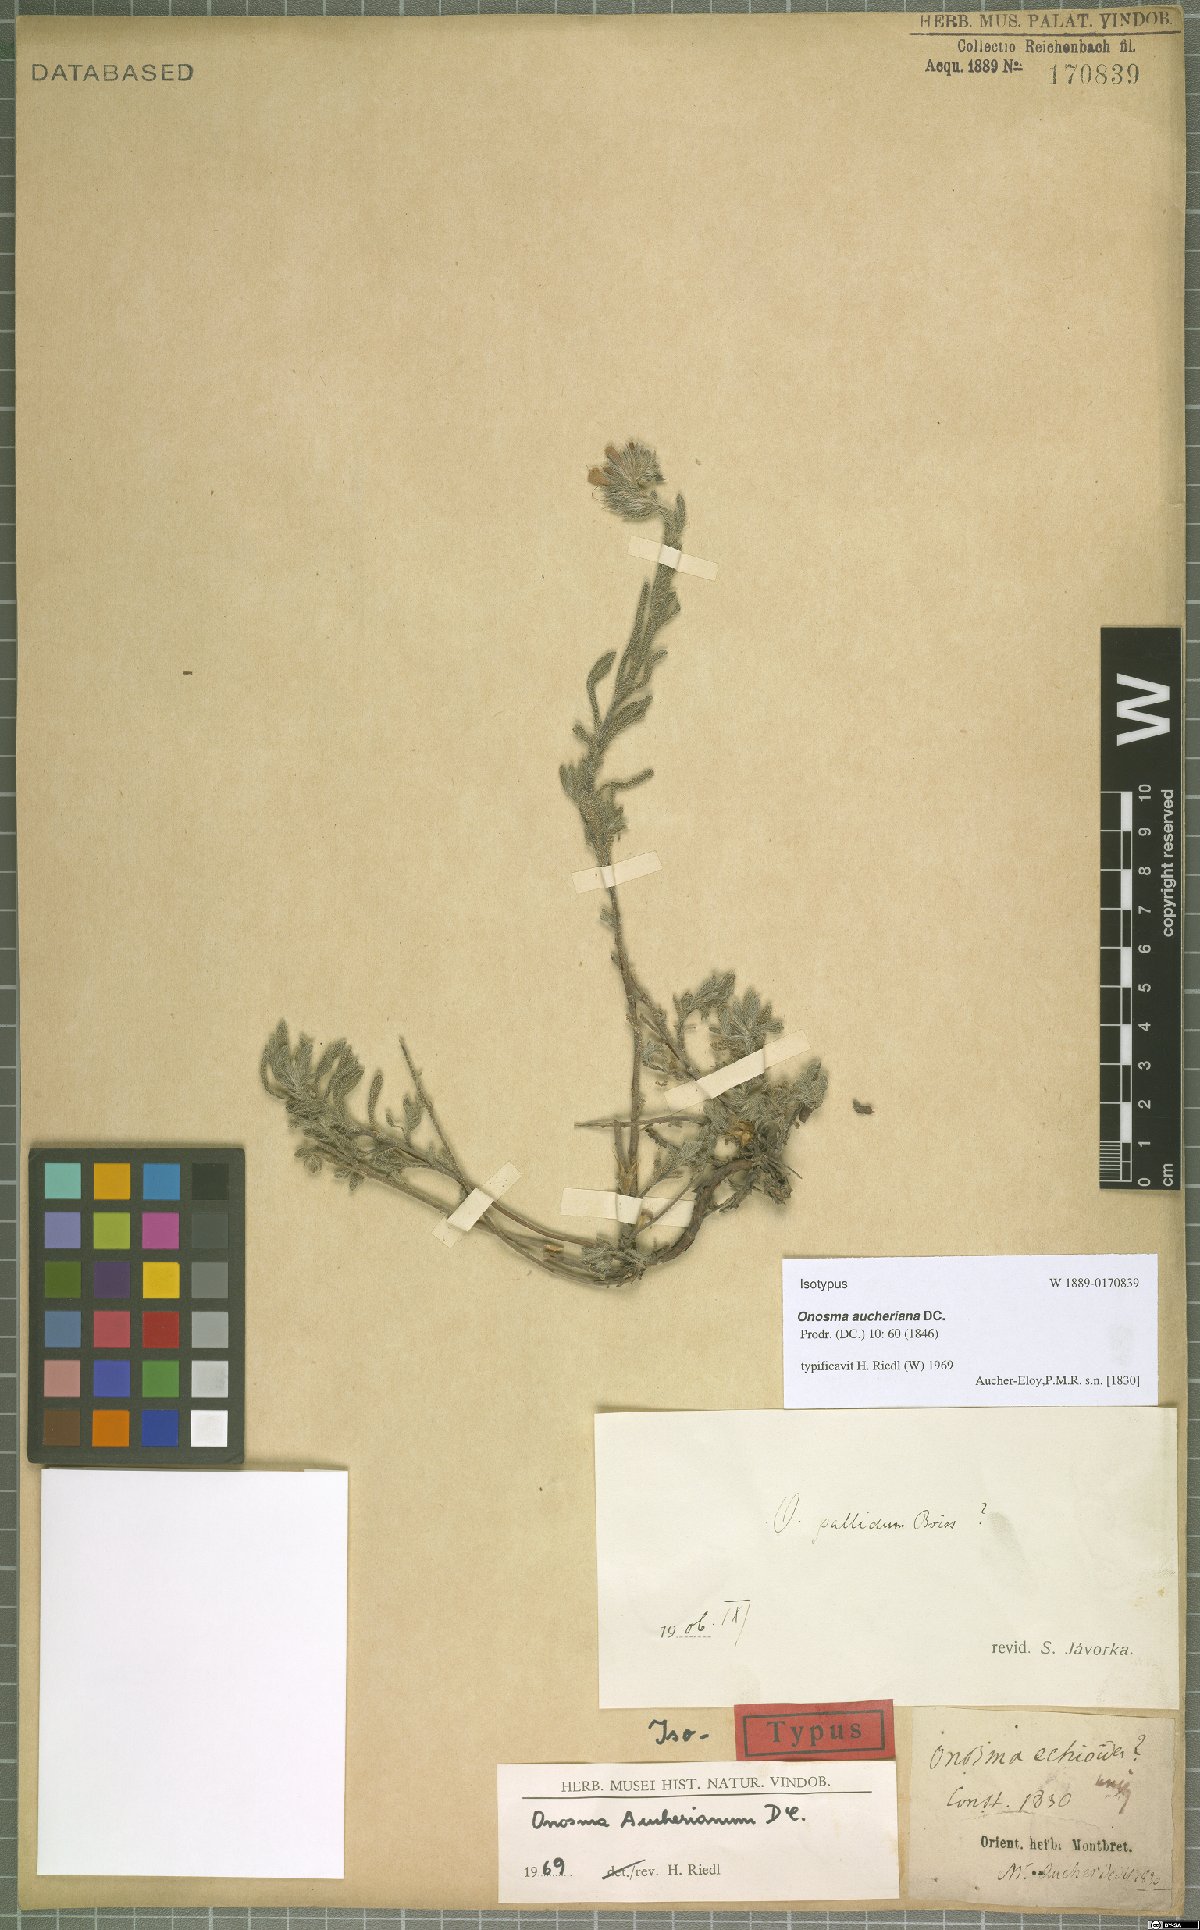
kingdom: Plantae
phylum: Tracheophyta
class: Magnoliopsida
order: Boraginales
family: Boraginaceae
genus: Onosma
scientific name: Onosma aucheriana
